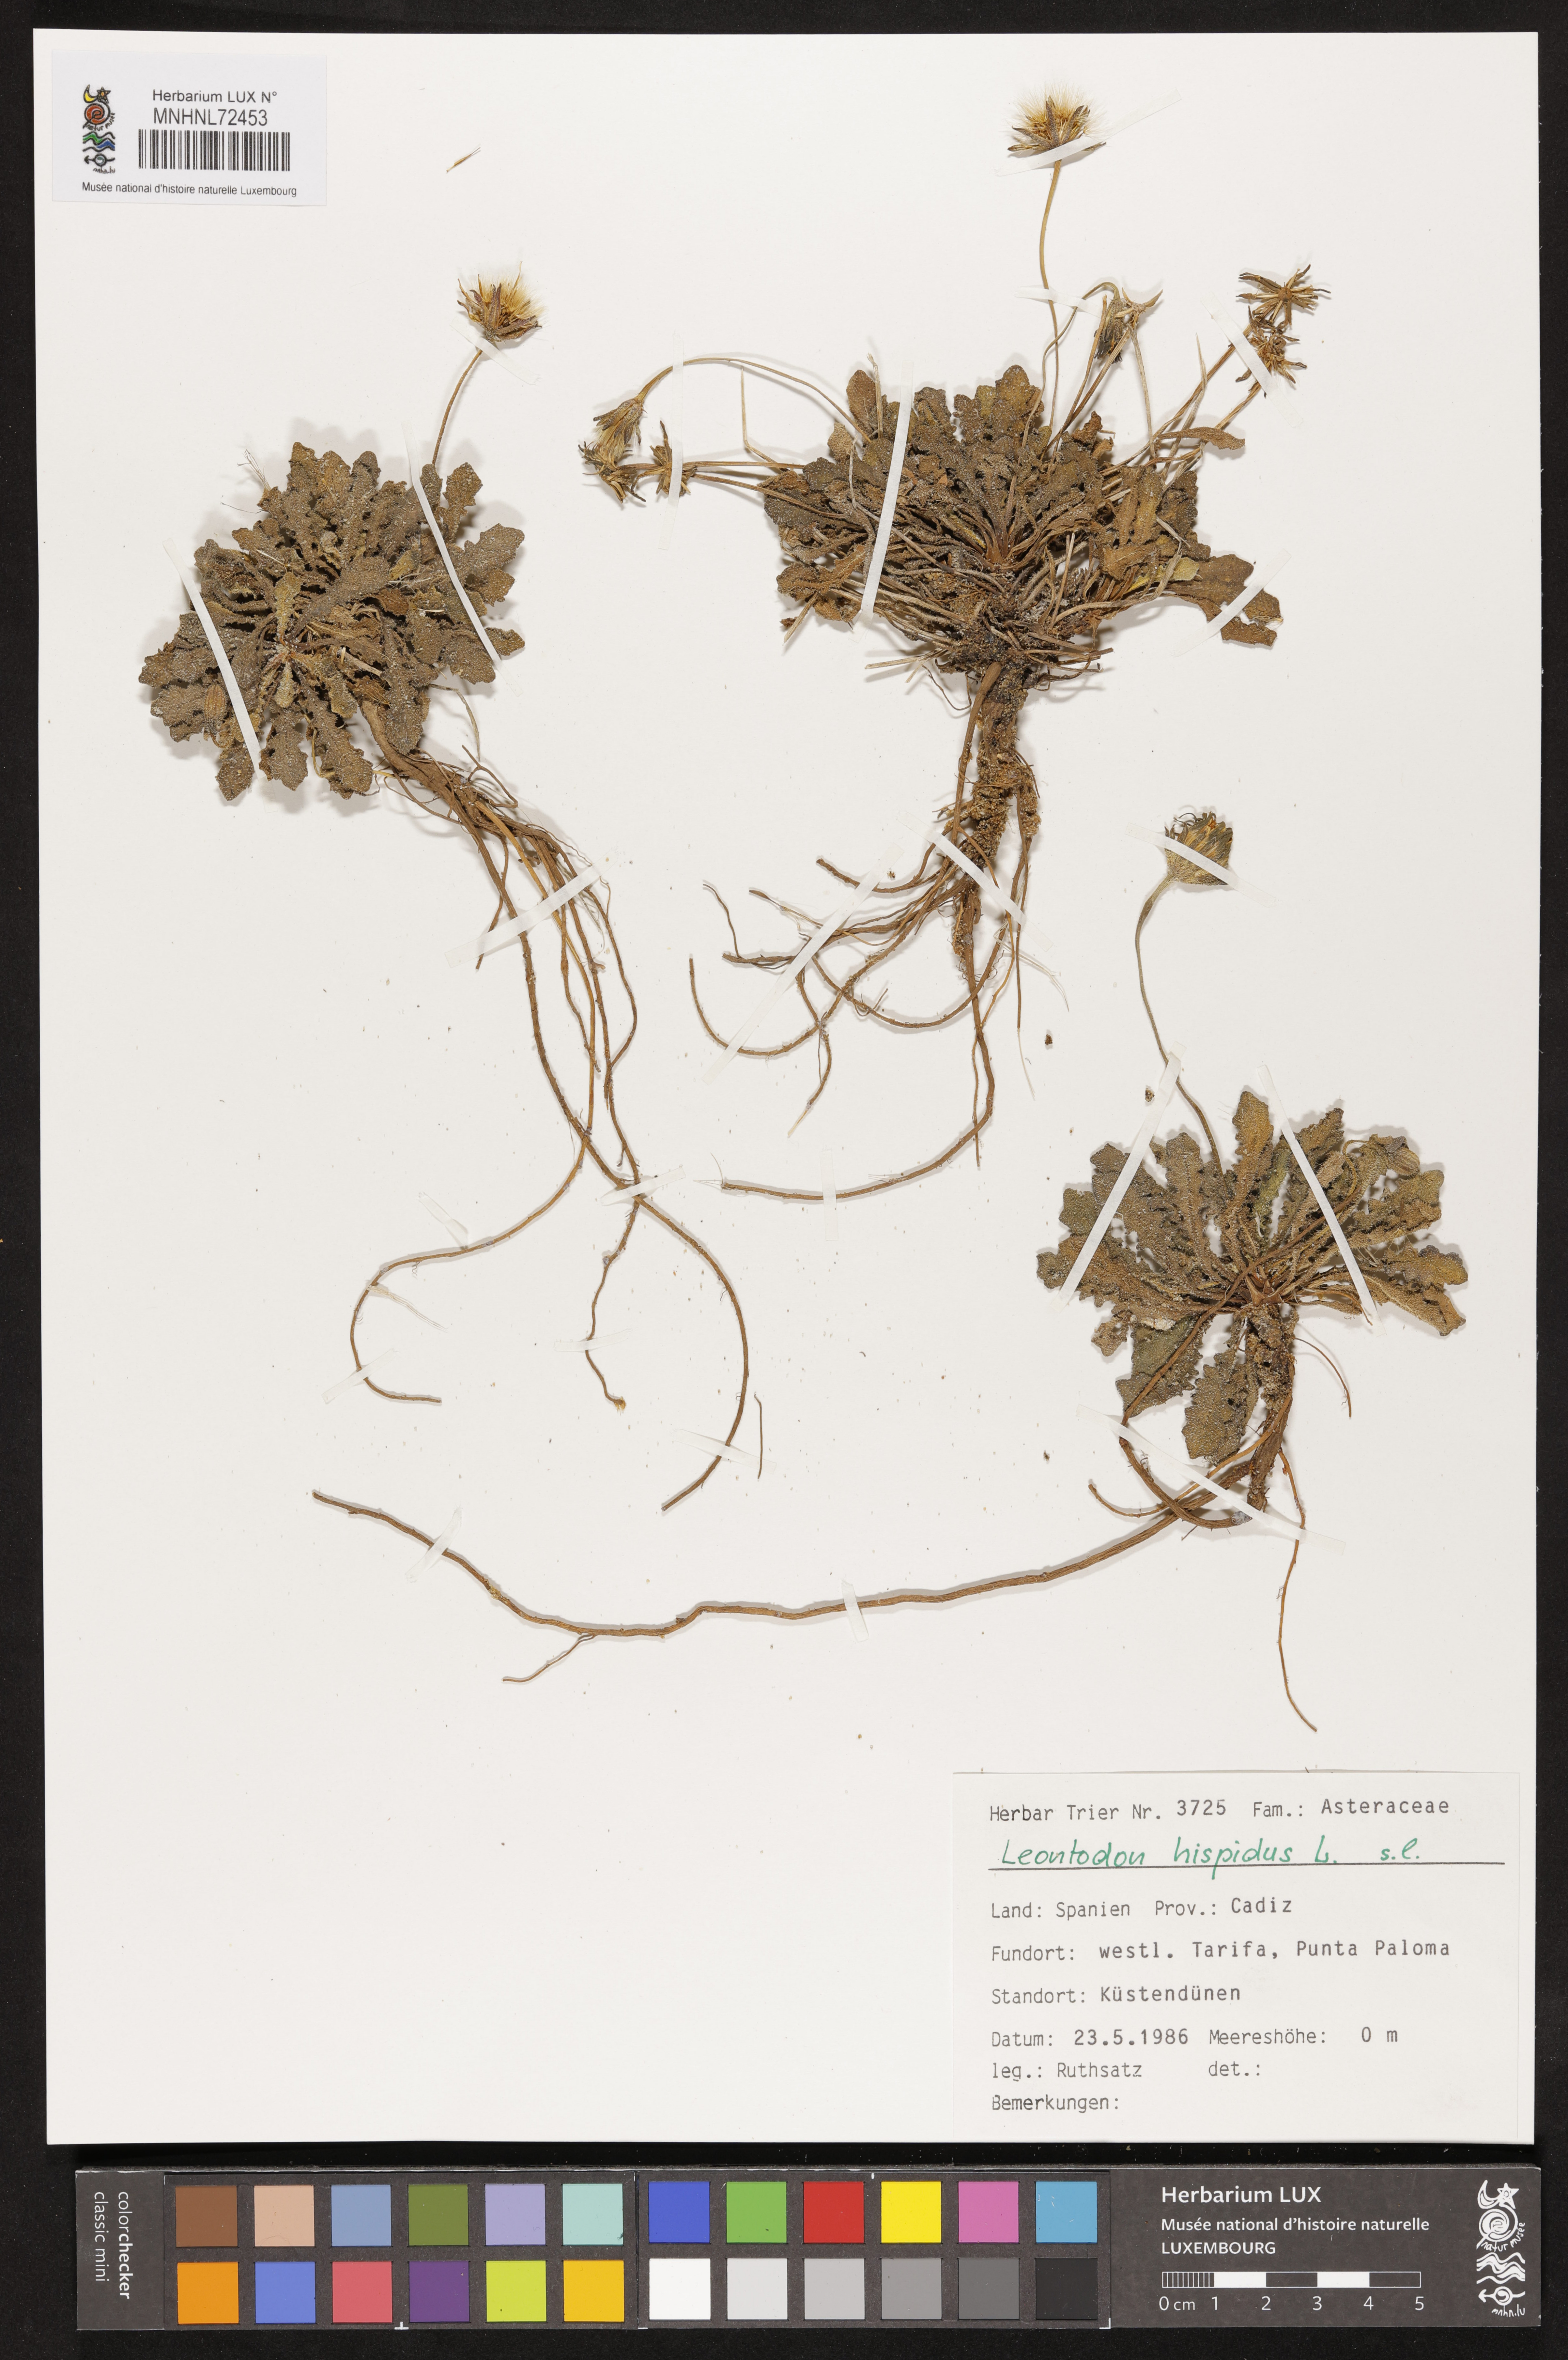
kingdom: Plantae
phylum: Tracheophyta
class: Magnoliopsida
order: Asterales
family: Asteraceae
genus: Leontodon
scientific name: Leontodon hispidus
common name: Rough hawkbit
